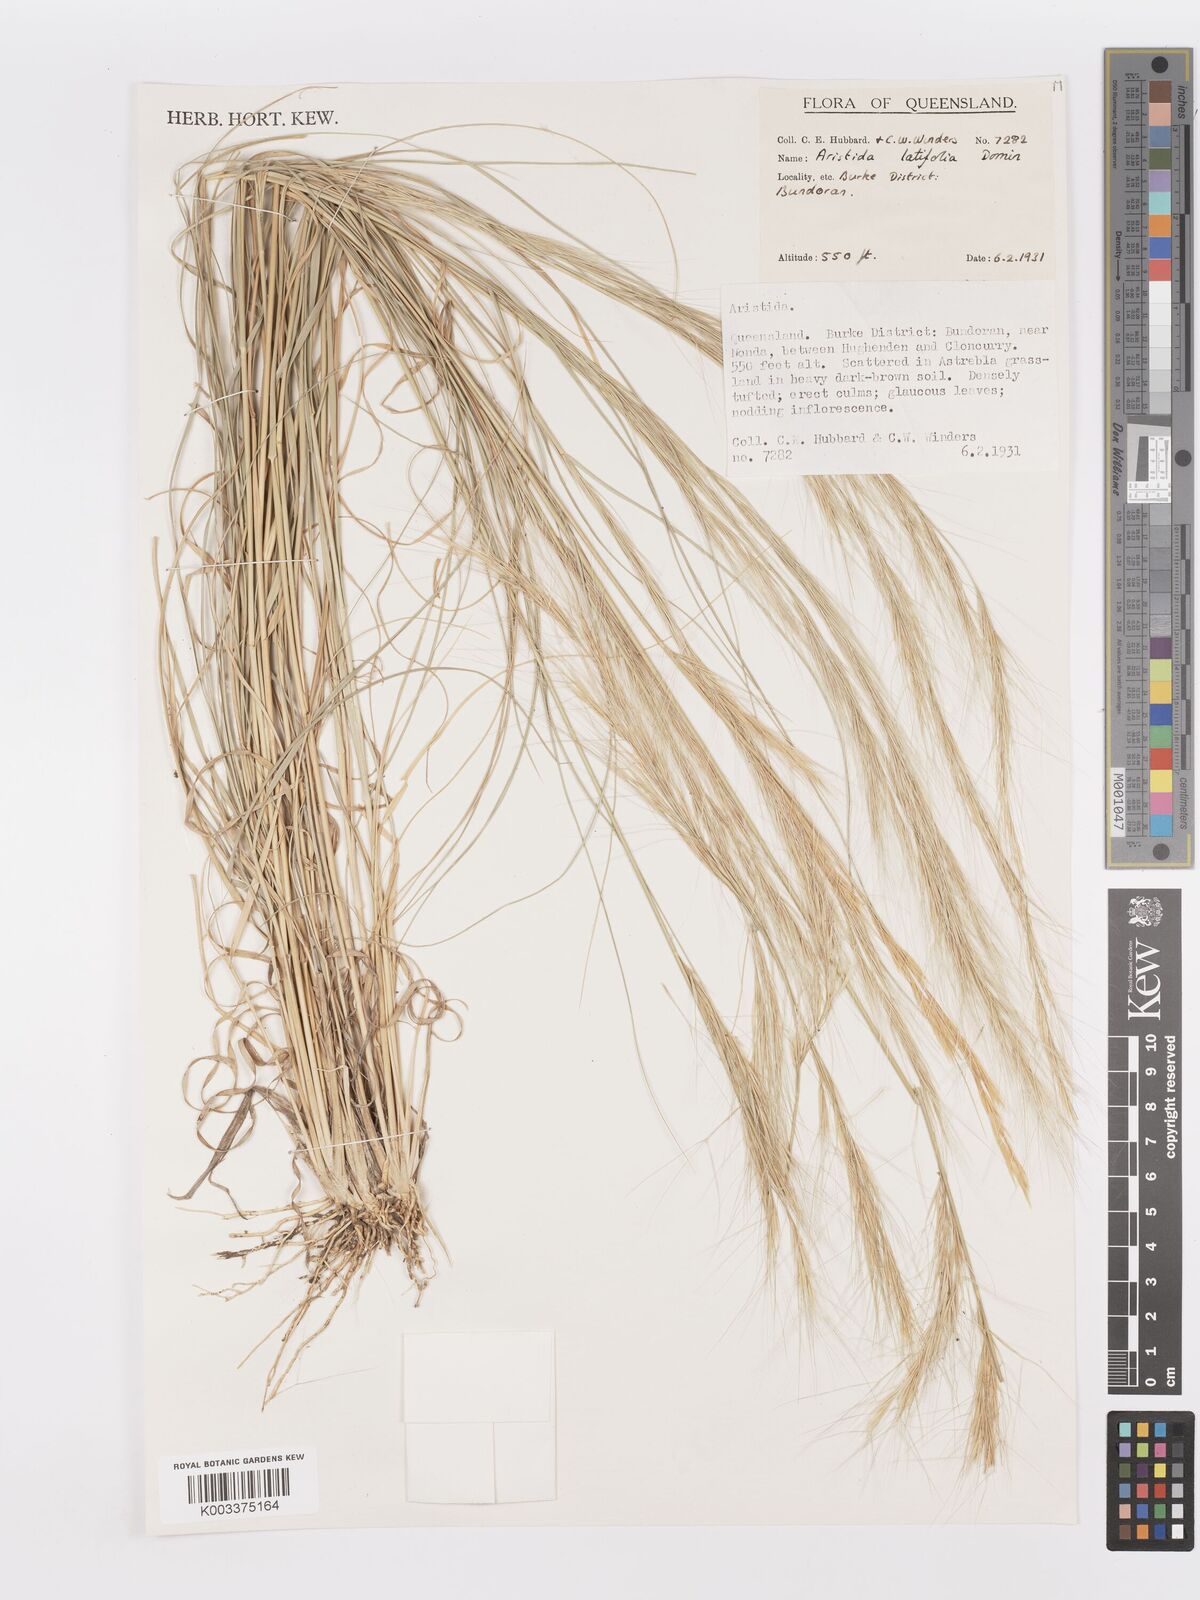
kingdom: Plantae
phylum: Tracheophyta
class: Liliopsida
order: Poales
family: Poaceae
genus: Aristida
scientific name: Aristida latifolia
